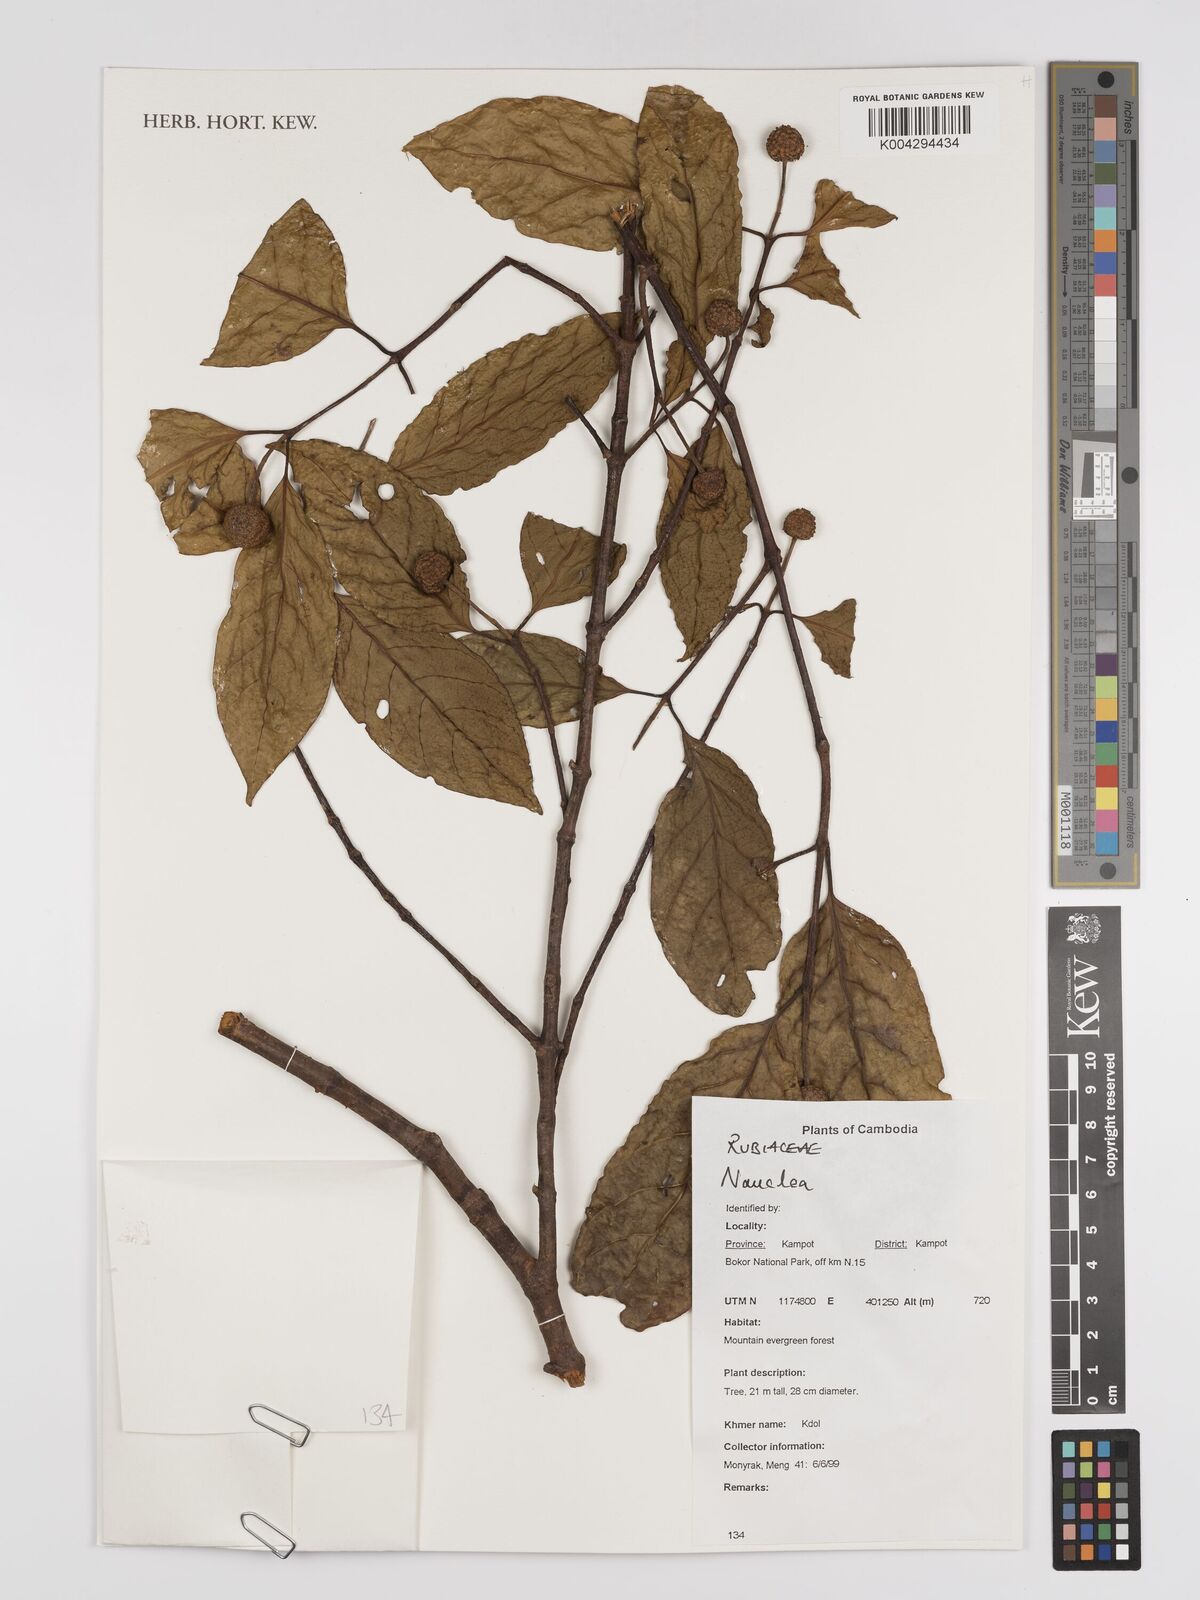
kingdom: Plantae
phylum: Tracheophyta
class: Magnoliopsida
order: Gentianales
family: Rubiaceae
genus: Nauclea
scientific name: Nauclea
